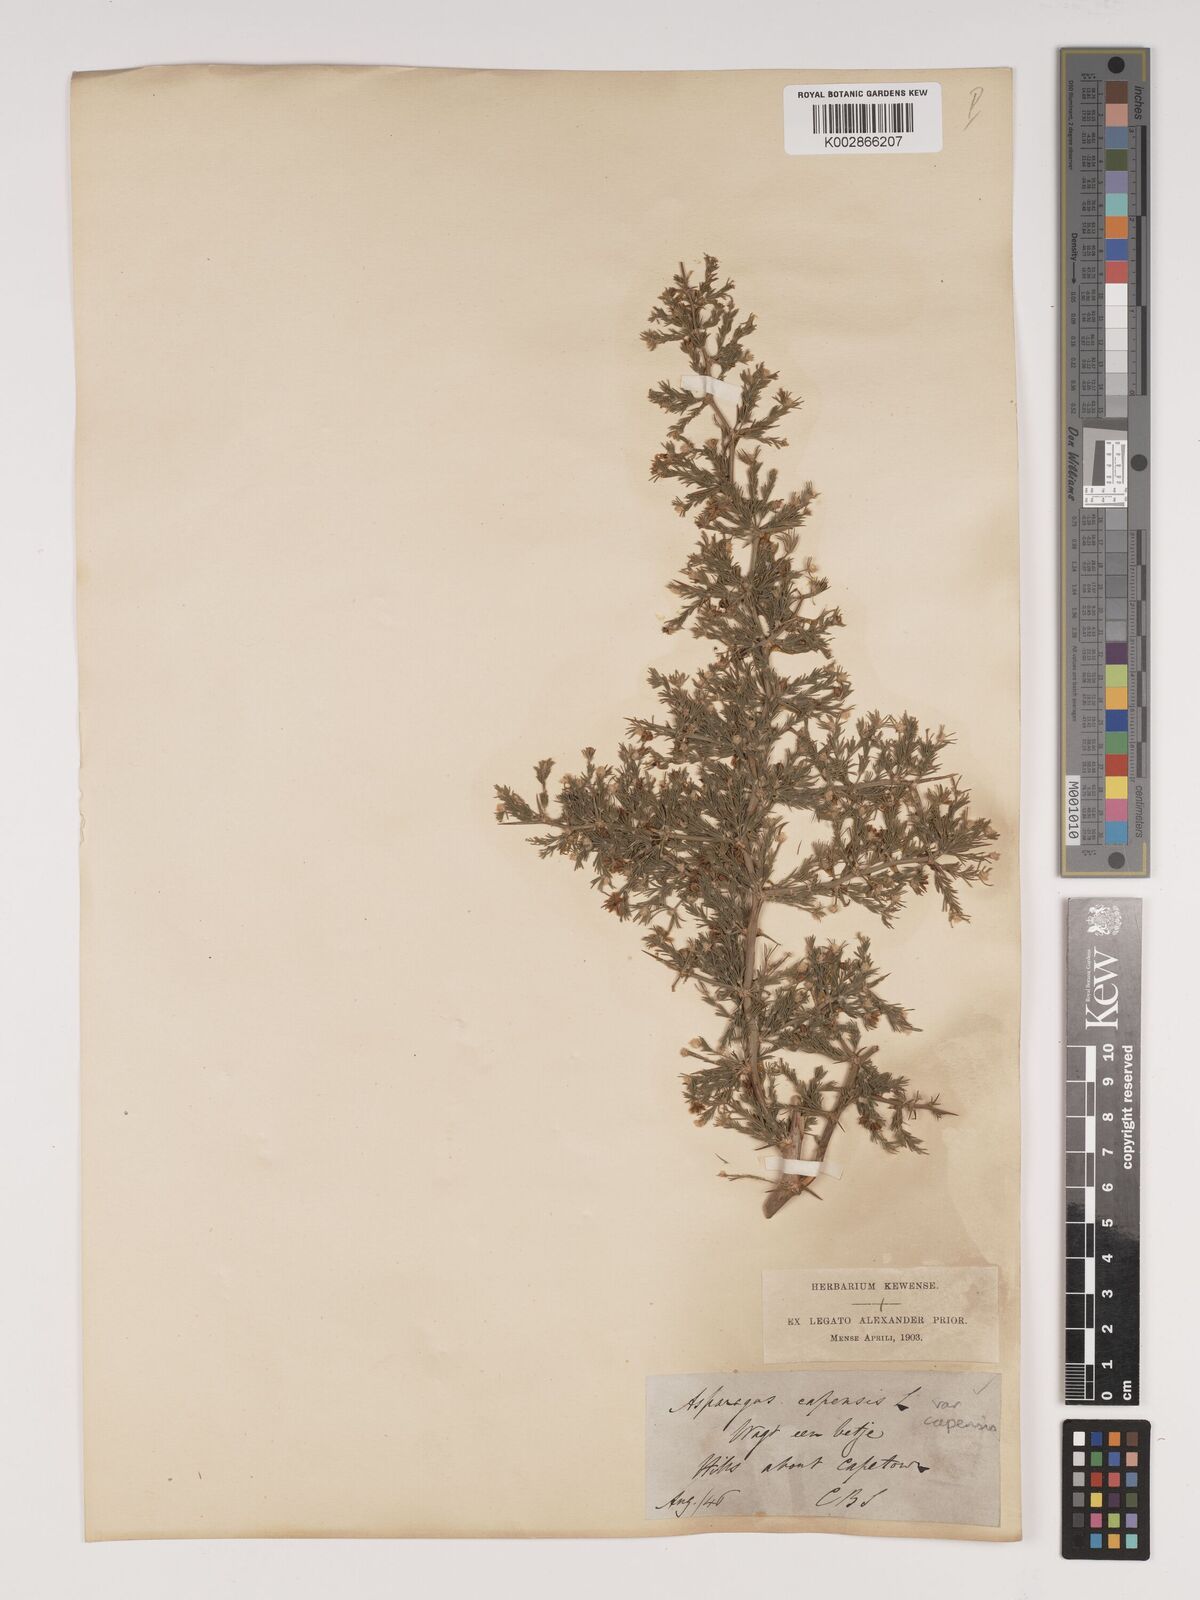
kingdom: Plantae
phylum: Tracheophyta
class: Liliopsida
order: Asparagales
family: Asparagaceae
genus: Asparagus
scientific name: Asparagus capensis
